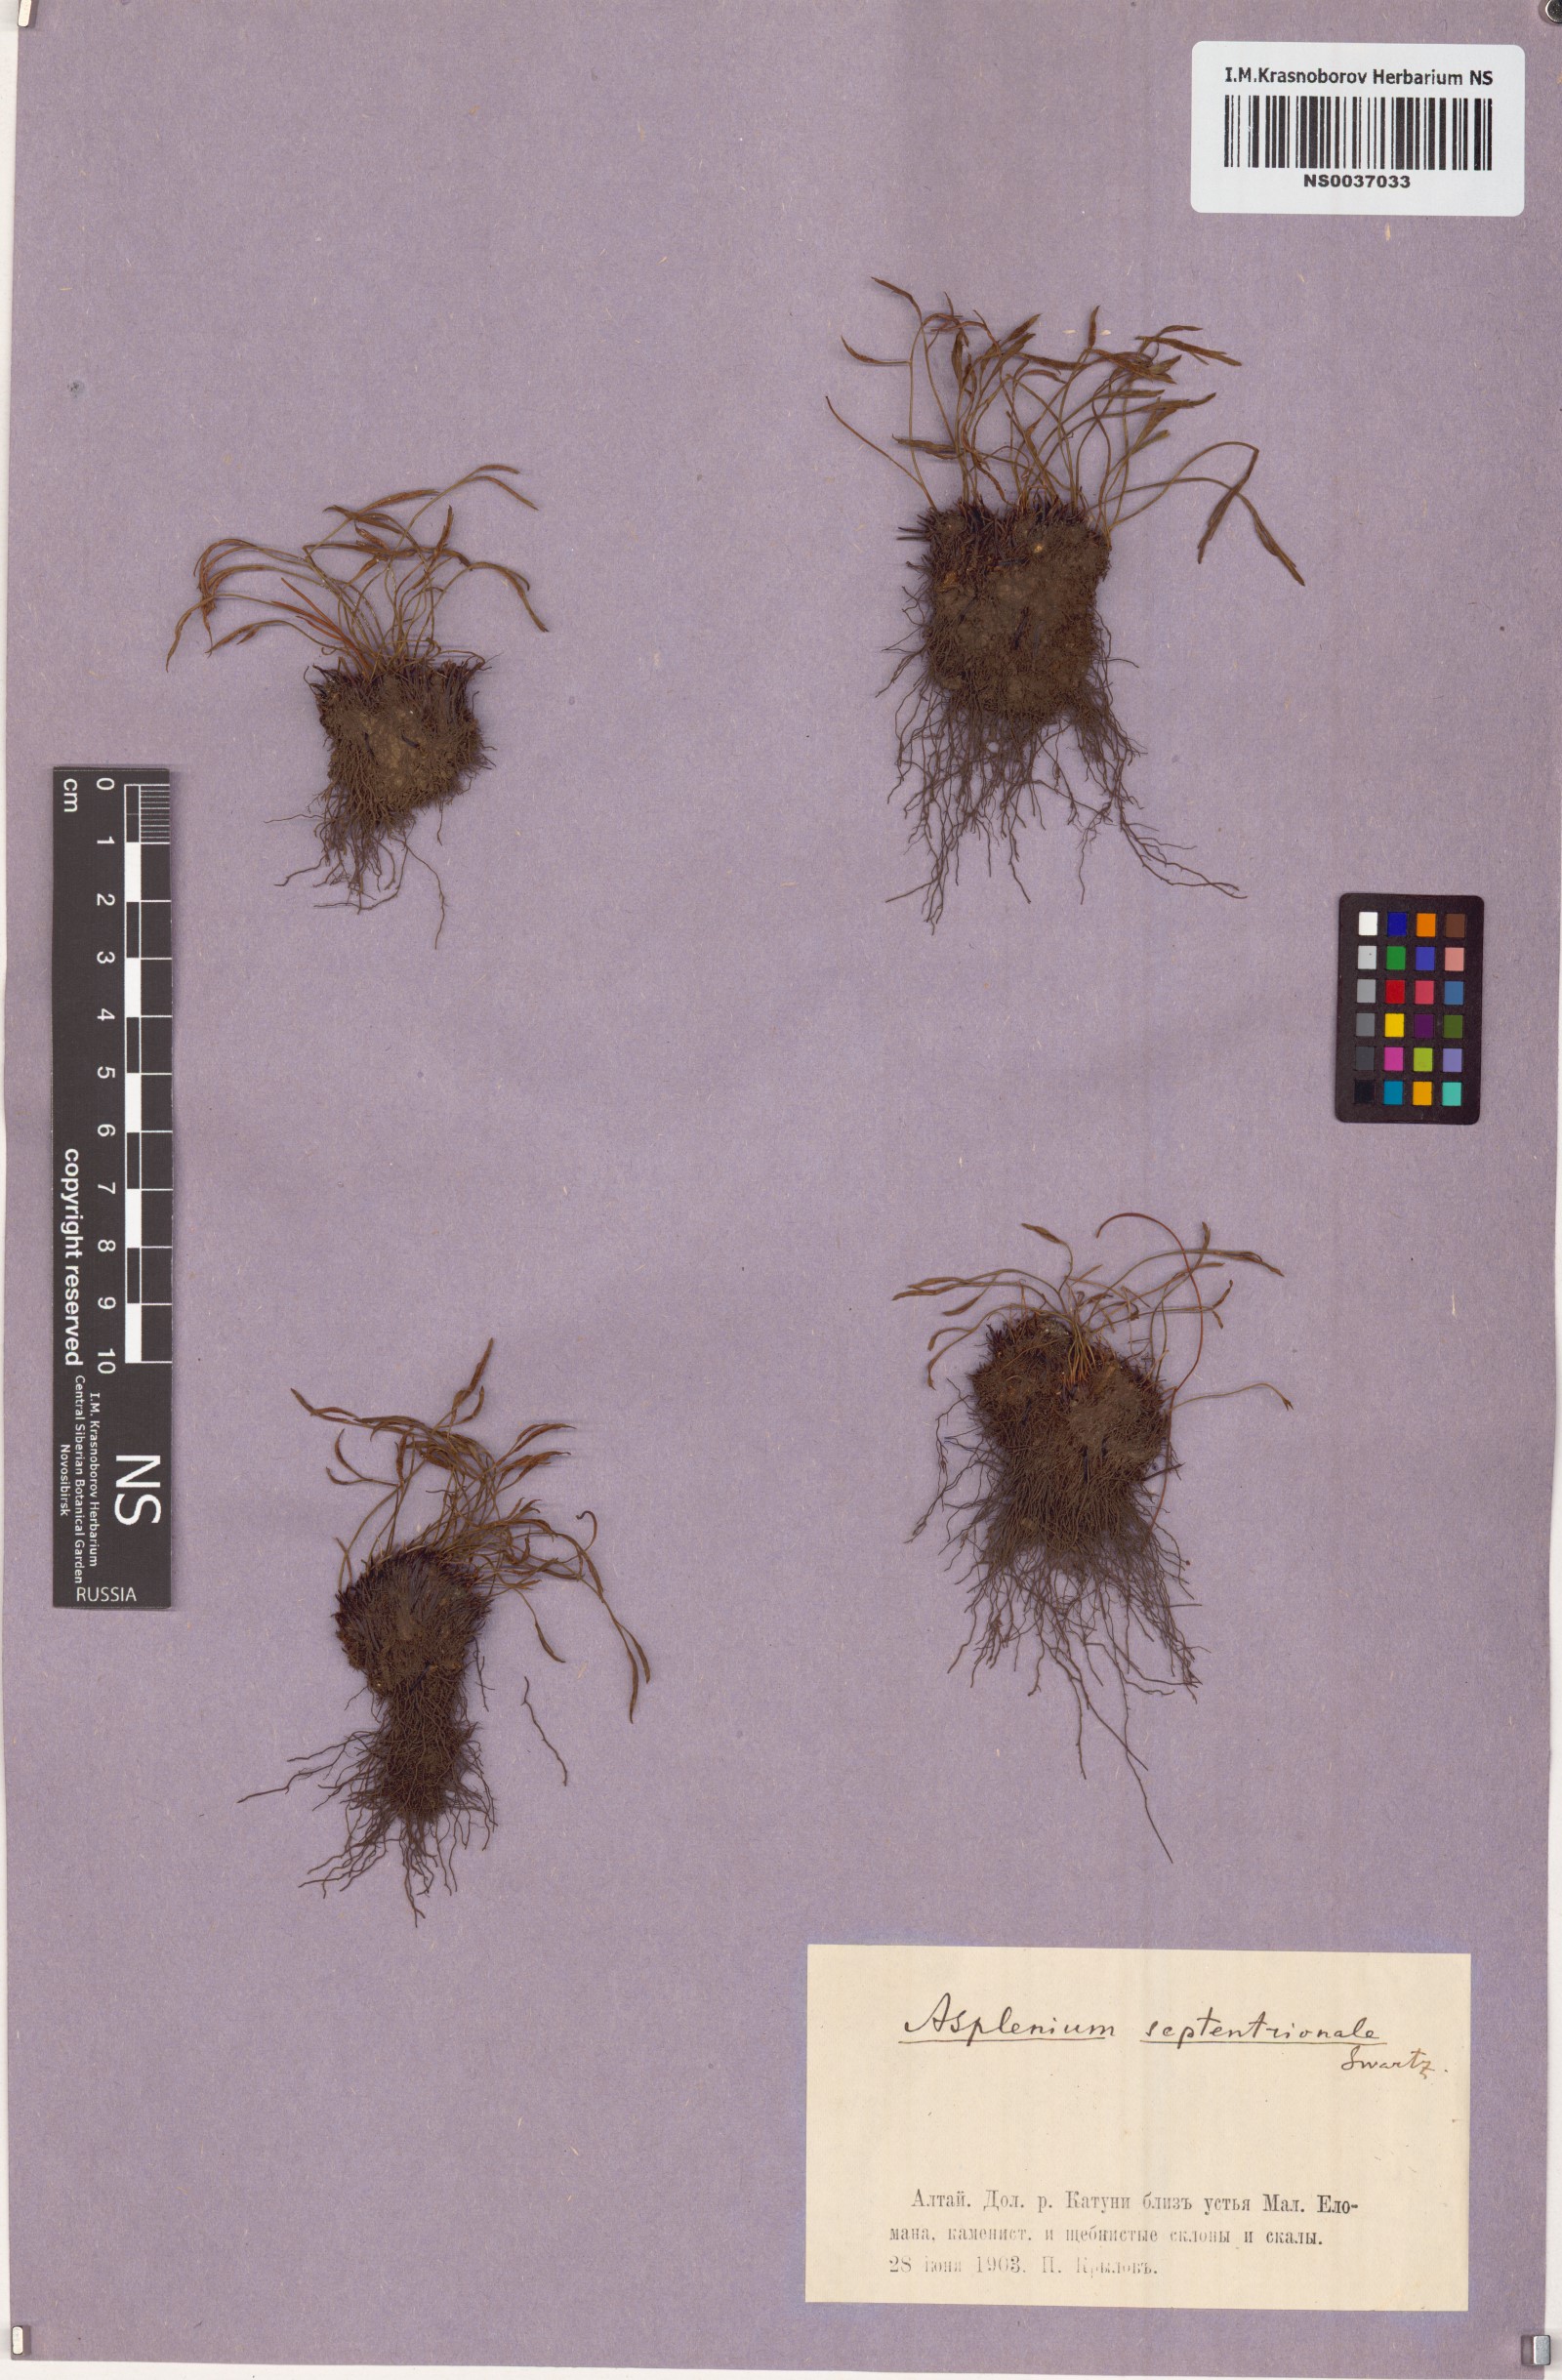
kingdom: Plantae
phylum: Tracheophyta
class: Polypodiopsida
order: Polypodiales
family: Aspleniaceae
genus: Asplenium
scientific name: Asplenium septentrionale
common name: Forked spleenwort
